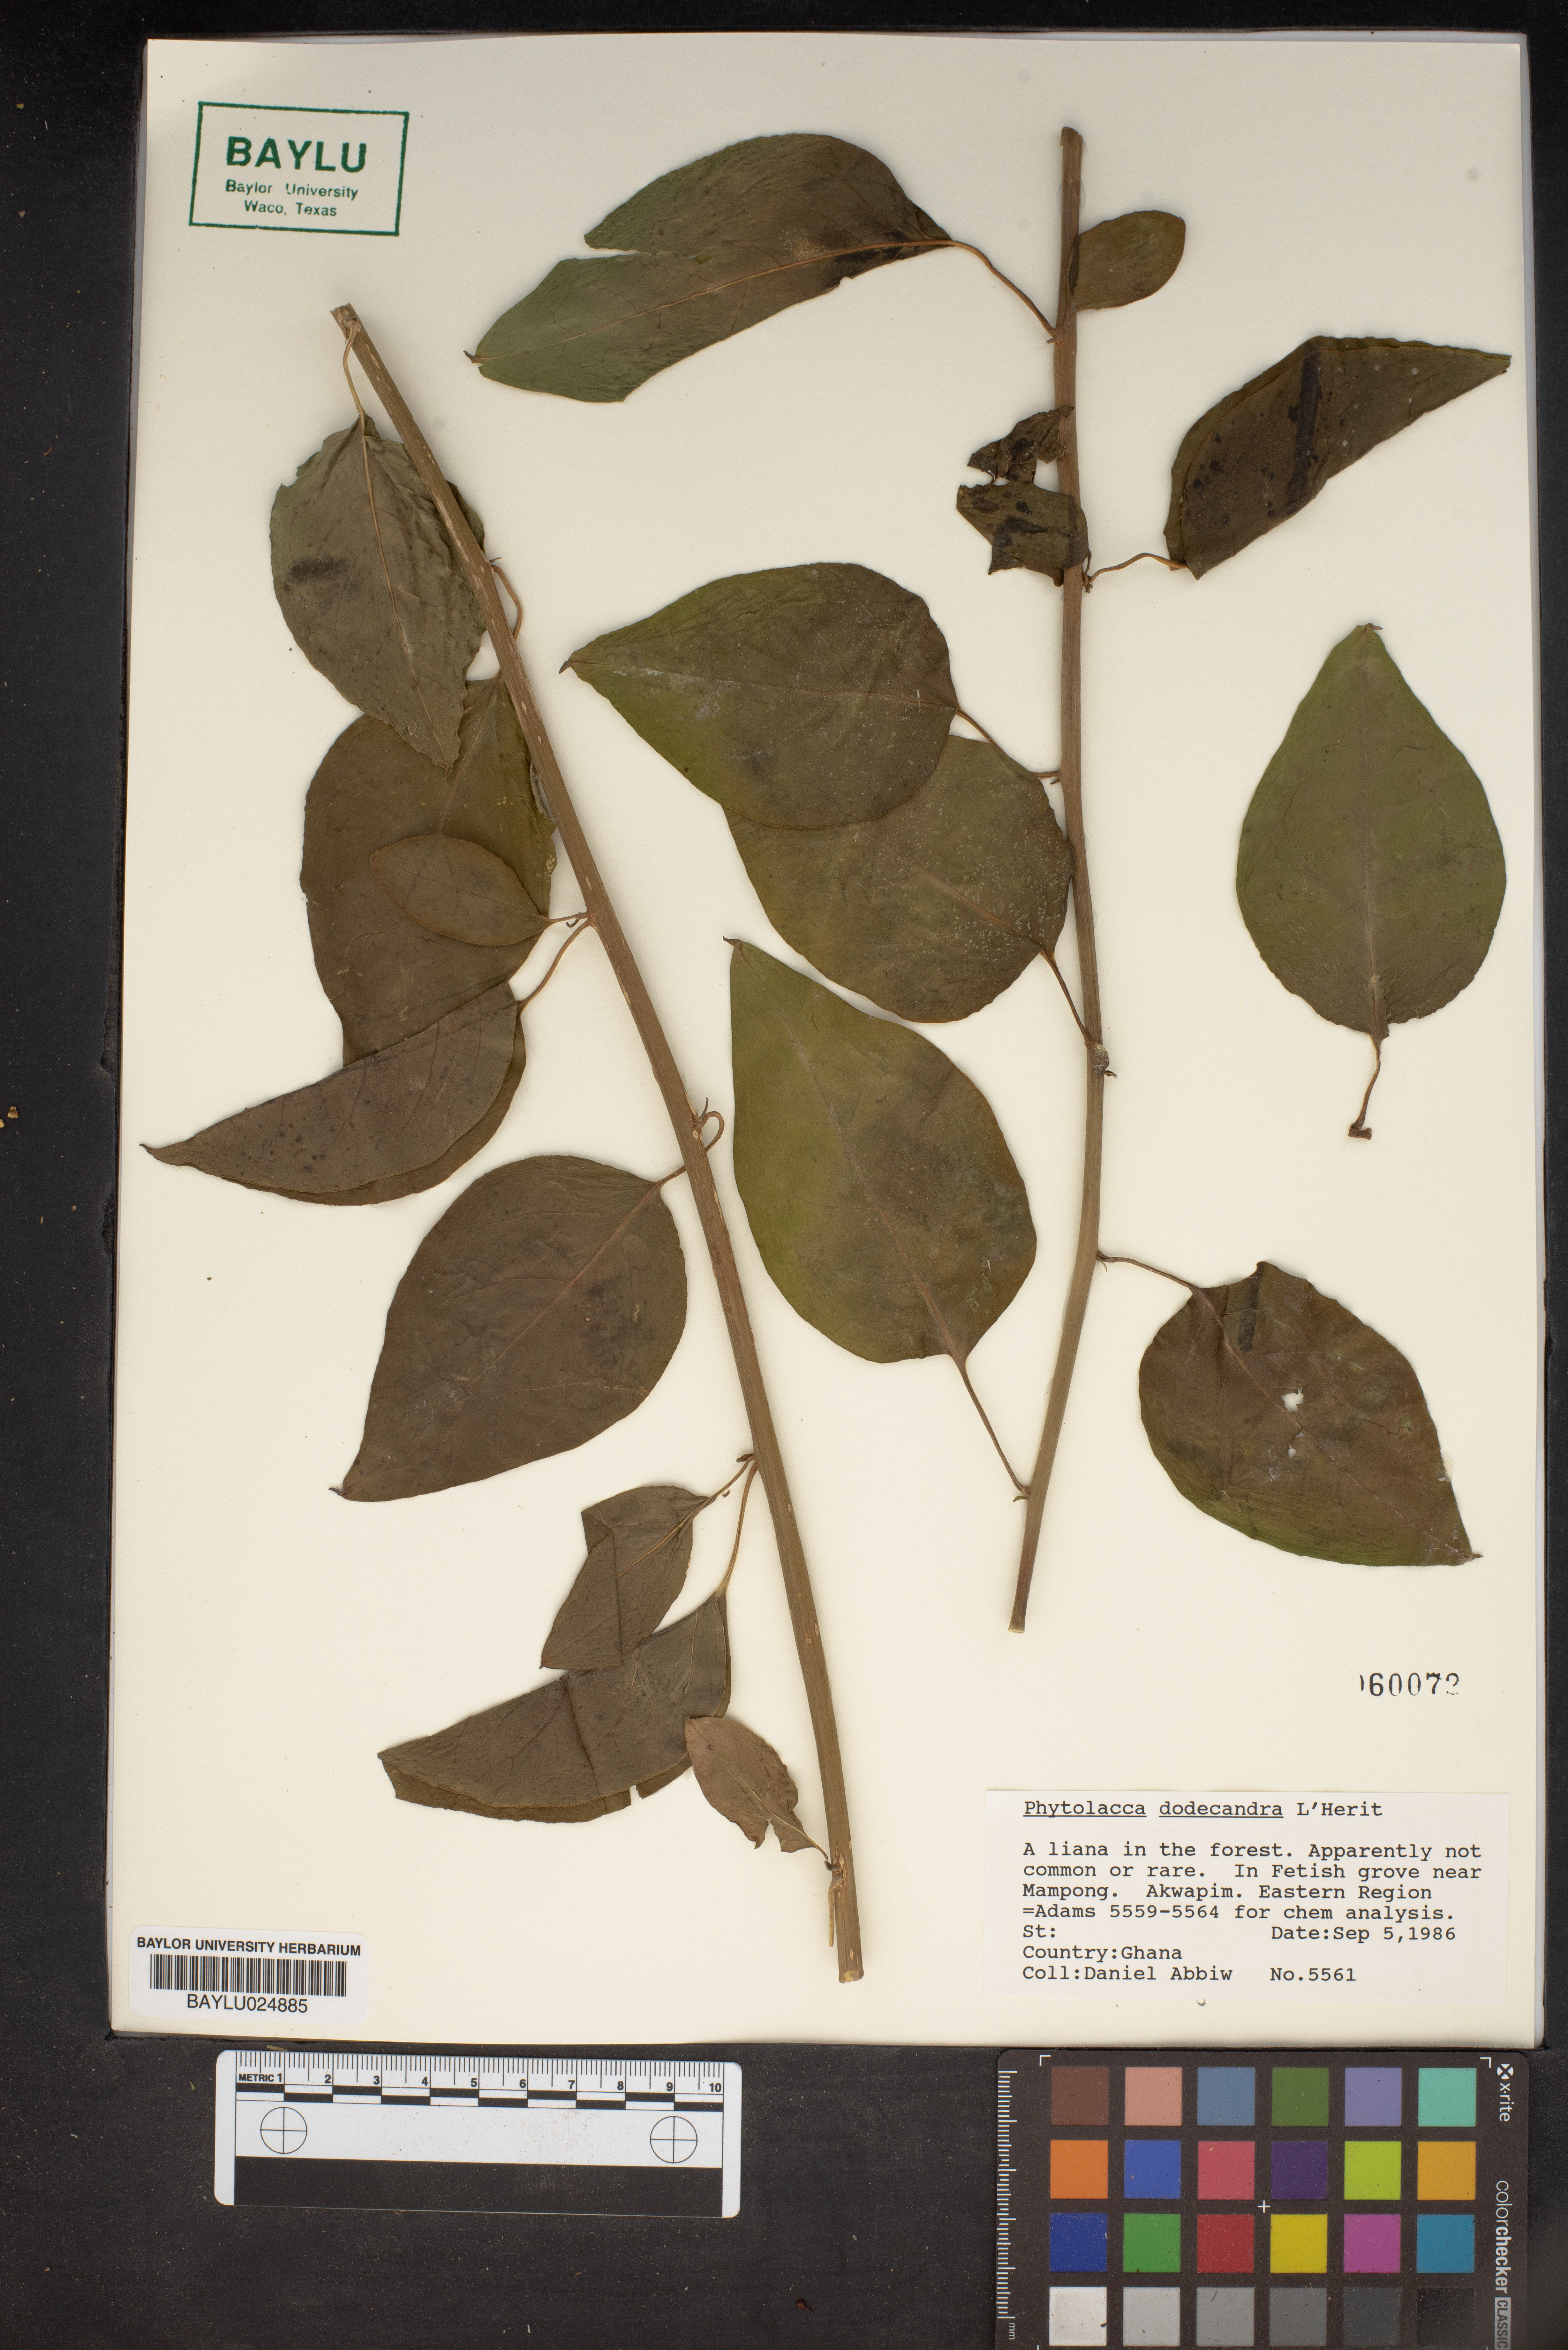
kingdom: Plantae
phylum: Tracheophyta
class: Magnoliopsida
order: Caryophyllales
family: Phytolaccaceae
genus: Phytolacca
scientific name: Phytolacca dodecandra
